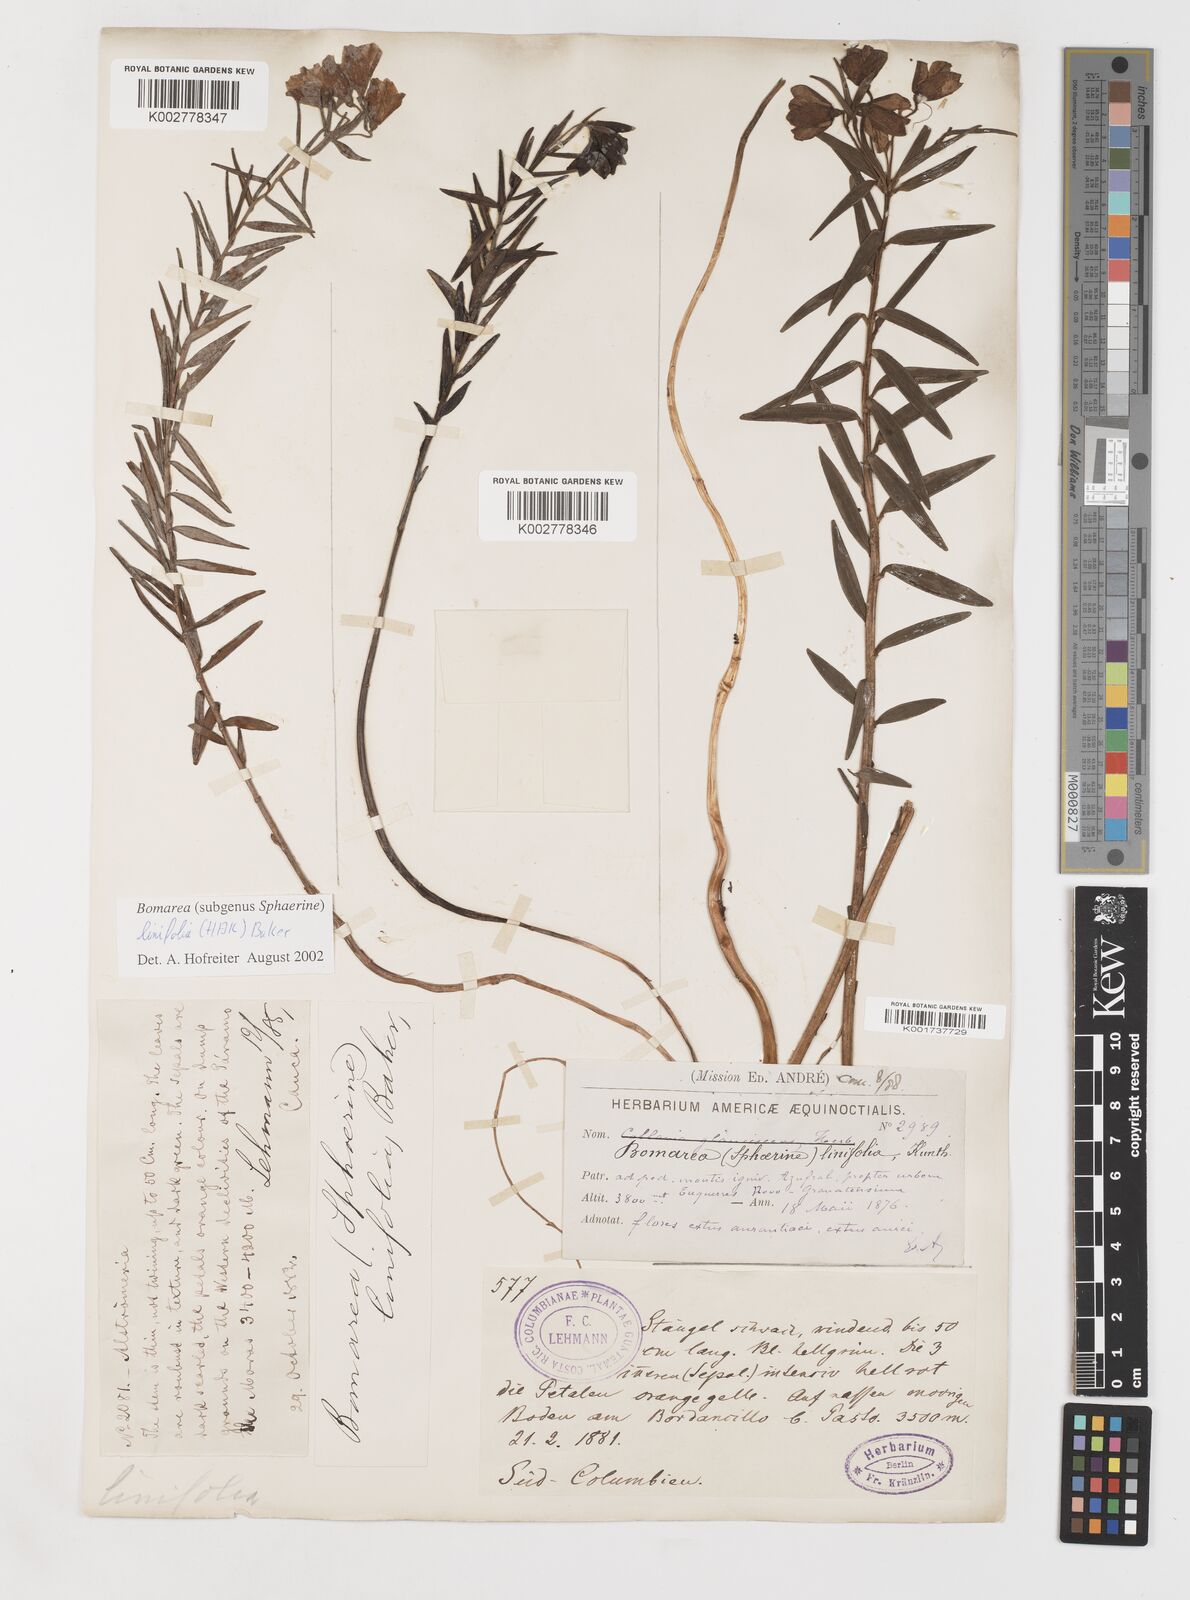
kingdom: Plantae
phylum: Tracheophyta
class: Liliopsida
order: Liliales
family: Alstroemeriaceae
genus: Bomarea
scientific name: Bomarea linifolia
